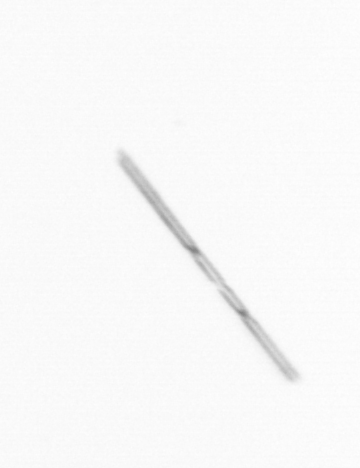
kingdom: Chromista
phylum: Ochrophyta
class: Bacillariophyceae
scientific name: Bacillariophyceae
